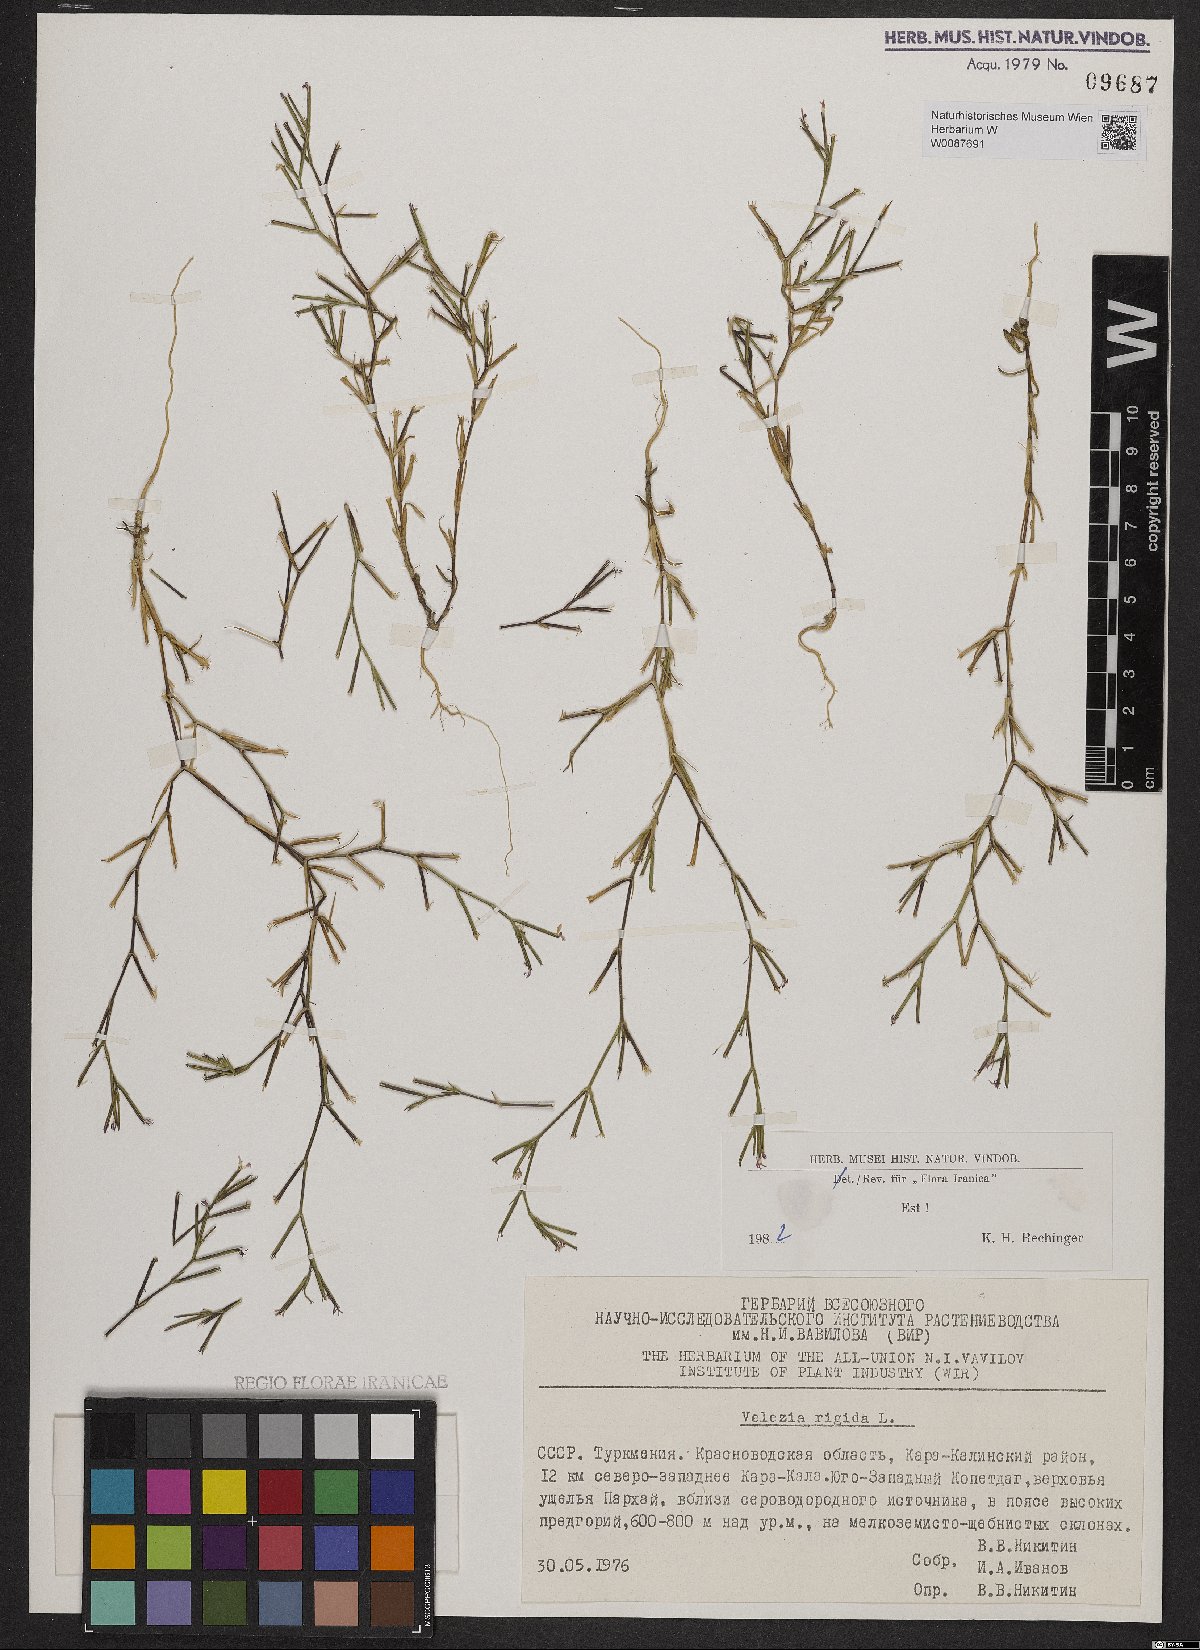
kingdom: Plantae
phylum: Tracheophyta
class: Magnoliopsida
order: Caryophyllales
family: Caryophyllaceae
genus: Dianthus
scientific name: Dianthus nudiflorus
